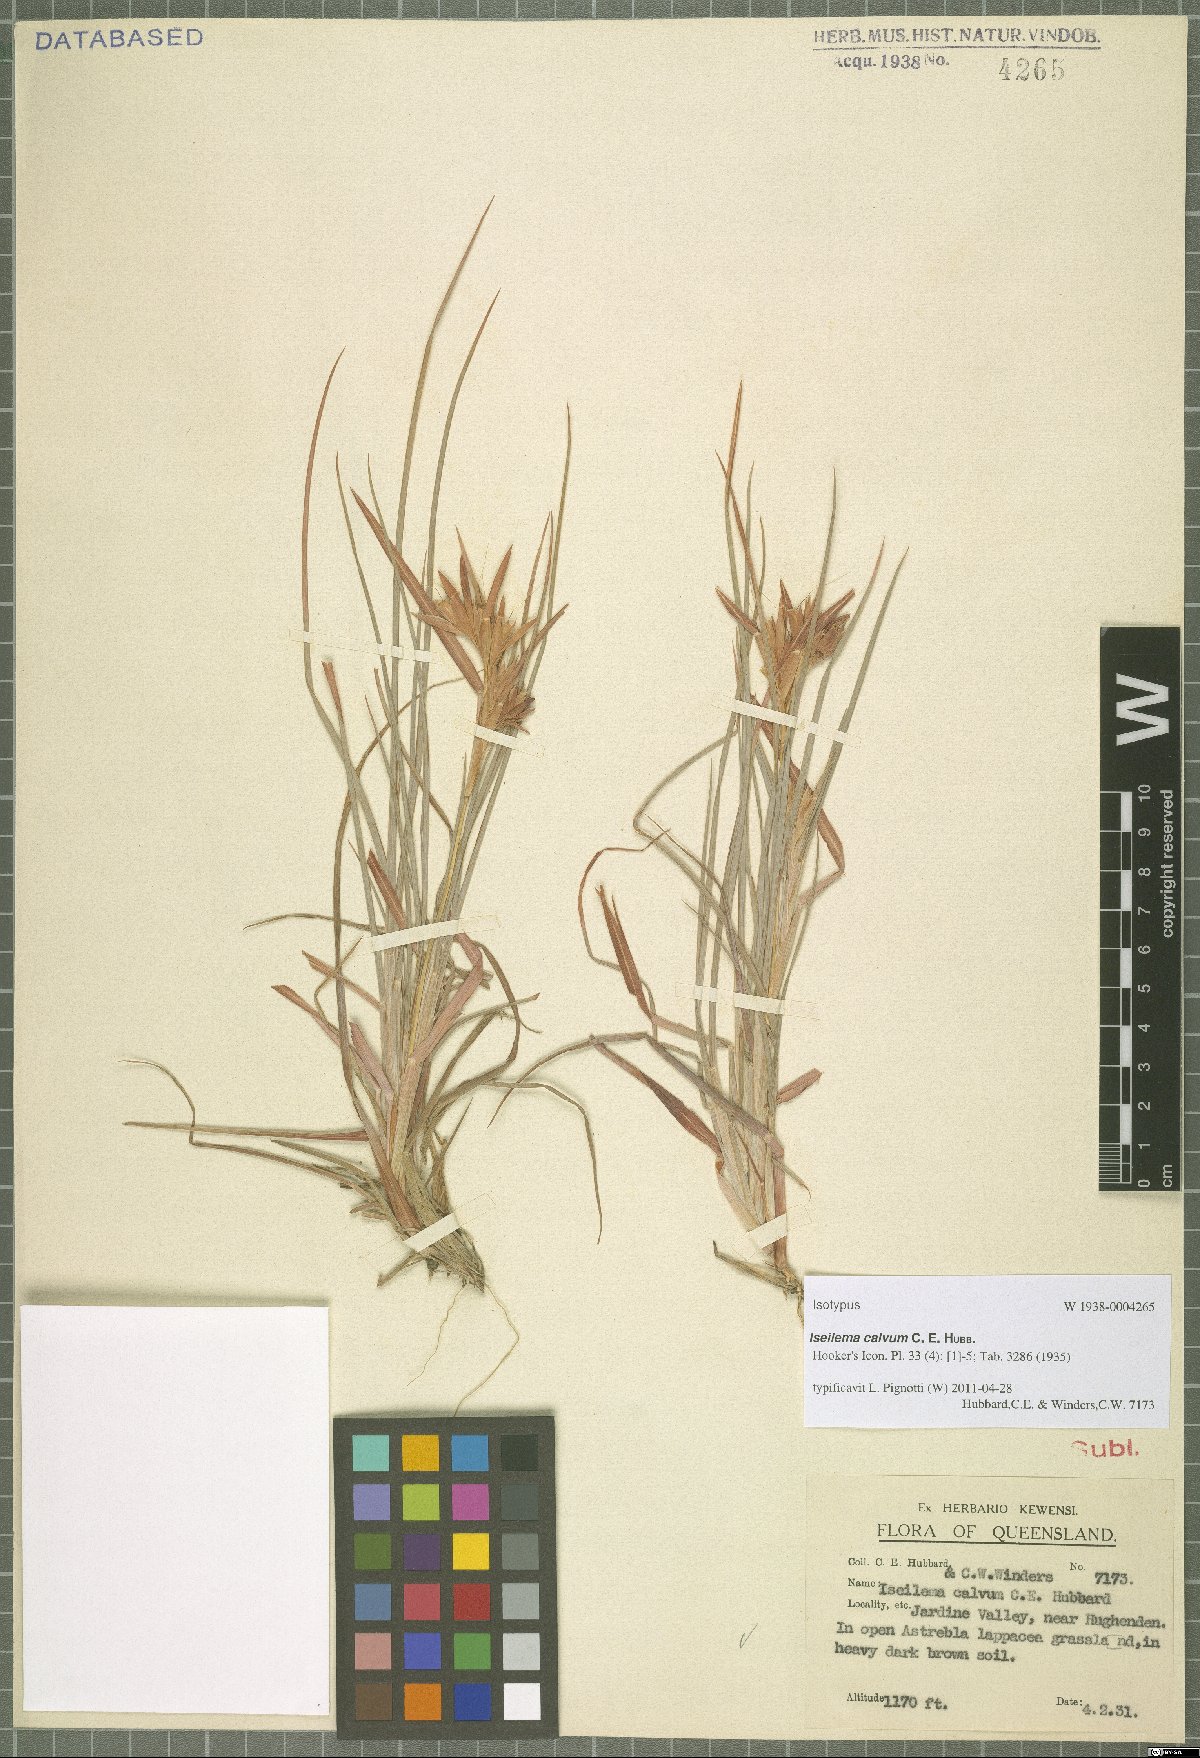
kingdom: Plantae
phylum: Tracheophyta
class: Liliopsida
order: Poales
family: Poaceae
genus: Iseilema
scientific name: Iseilema calvum
